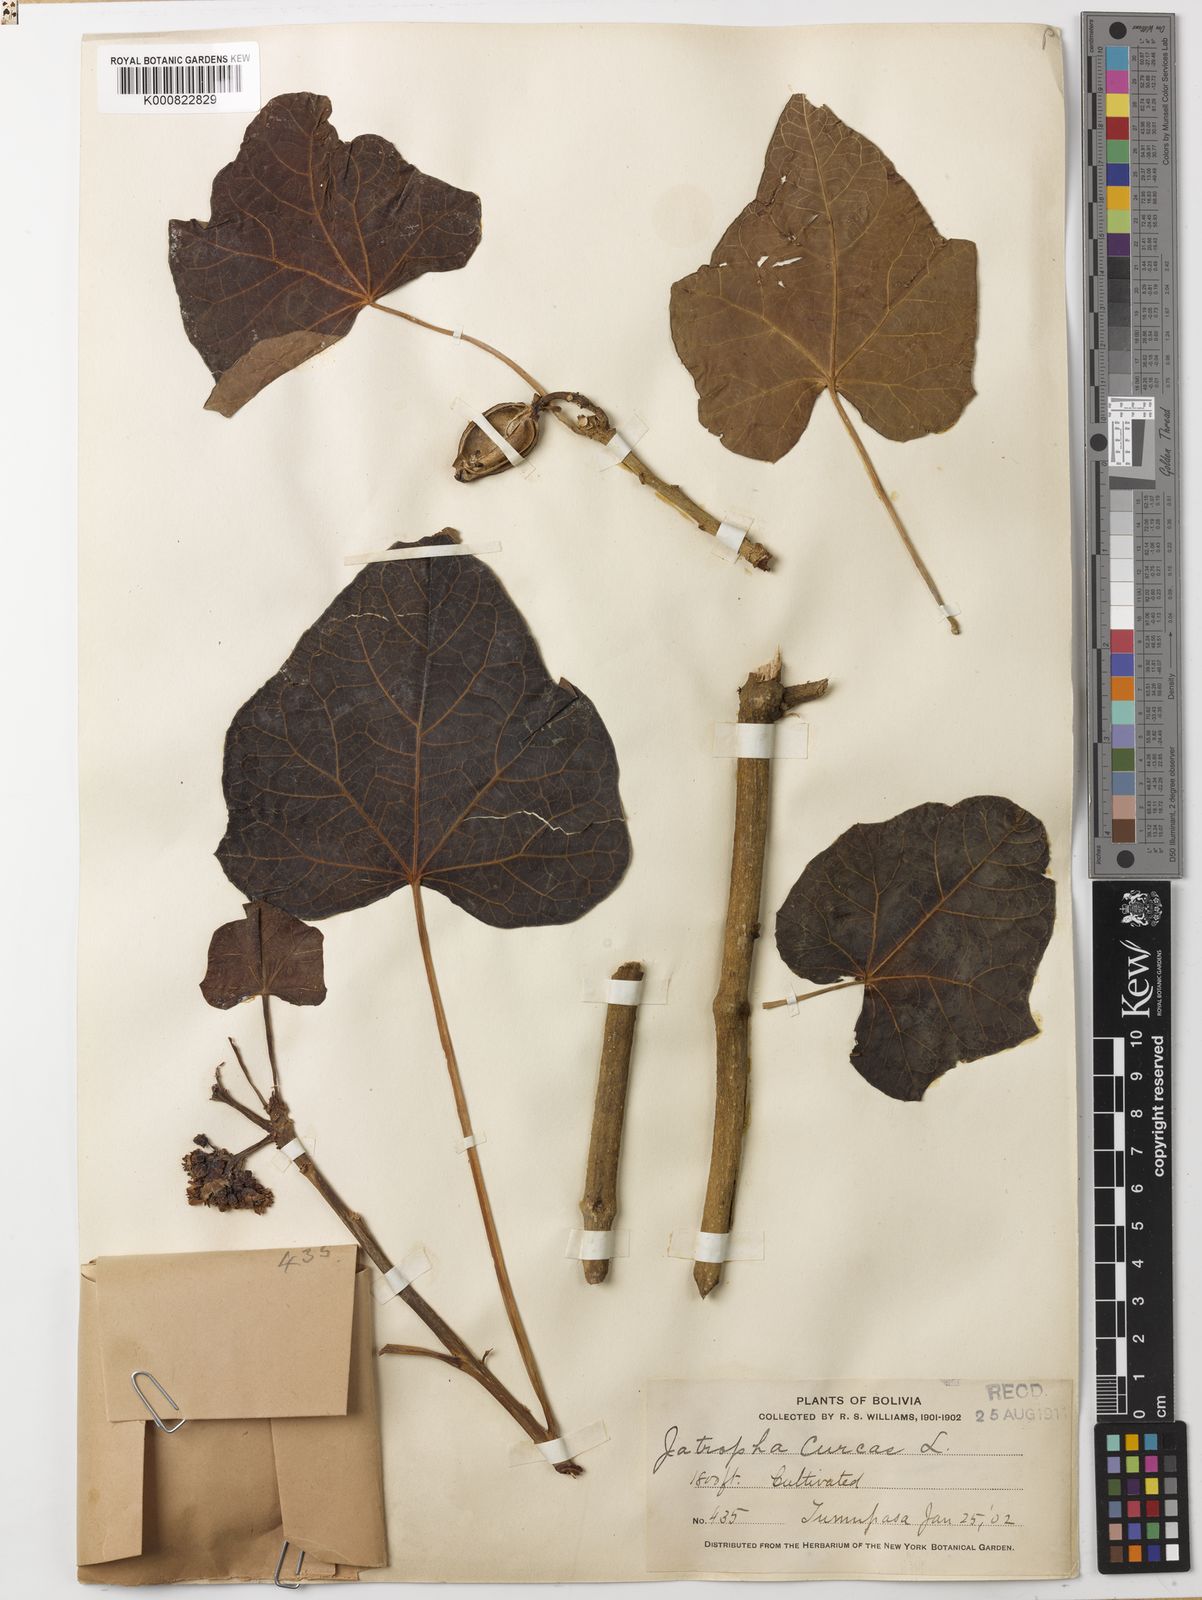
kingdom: Plantae
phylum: Tracheophyta
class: Magnoliopsida
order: Malpighiales
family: Euphorbiaceae
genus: Jatropha
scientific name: Jatropha curcas
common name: Barbados nut
